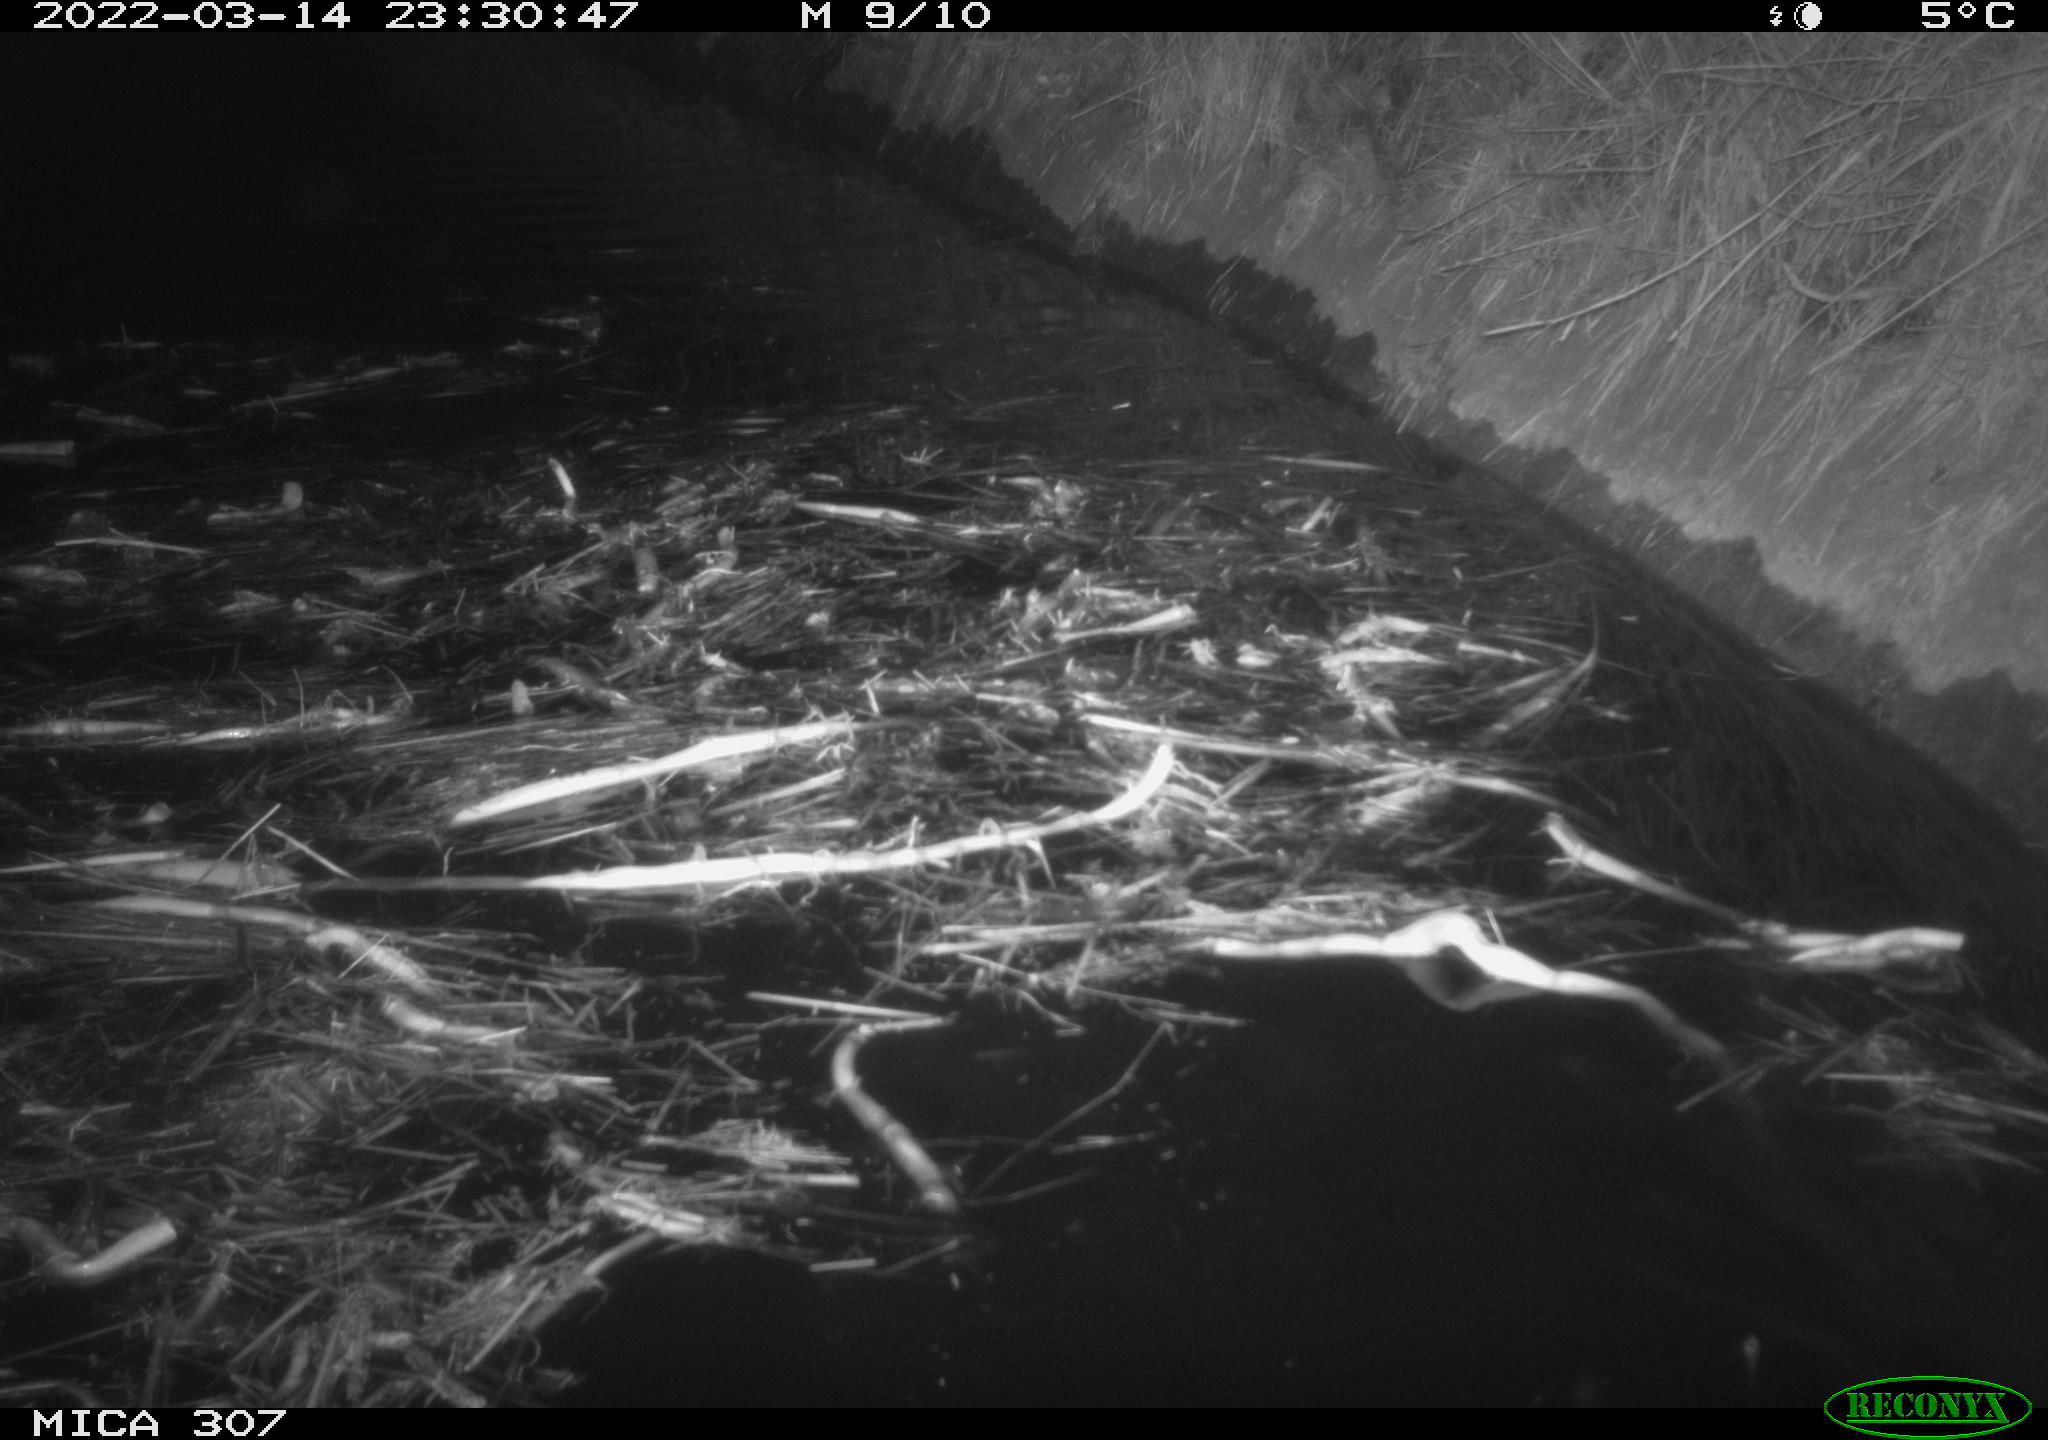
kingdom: Animalia
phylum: Chordata
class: Mammalia
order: Rodentia
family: Cricetidae
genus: Ondatra
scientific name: Ondatra zibethicus
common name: Muskrat
